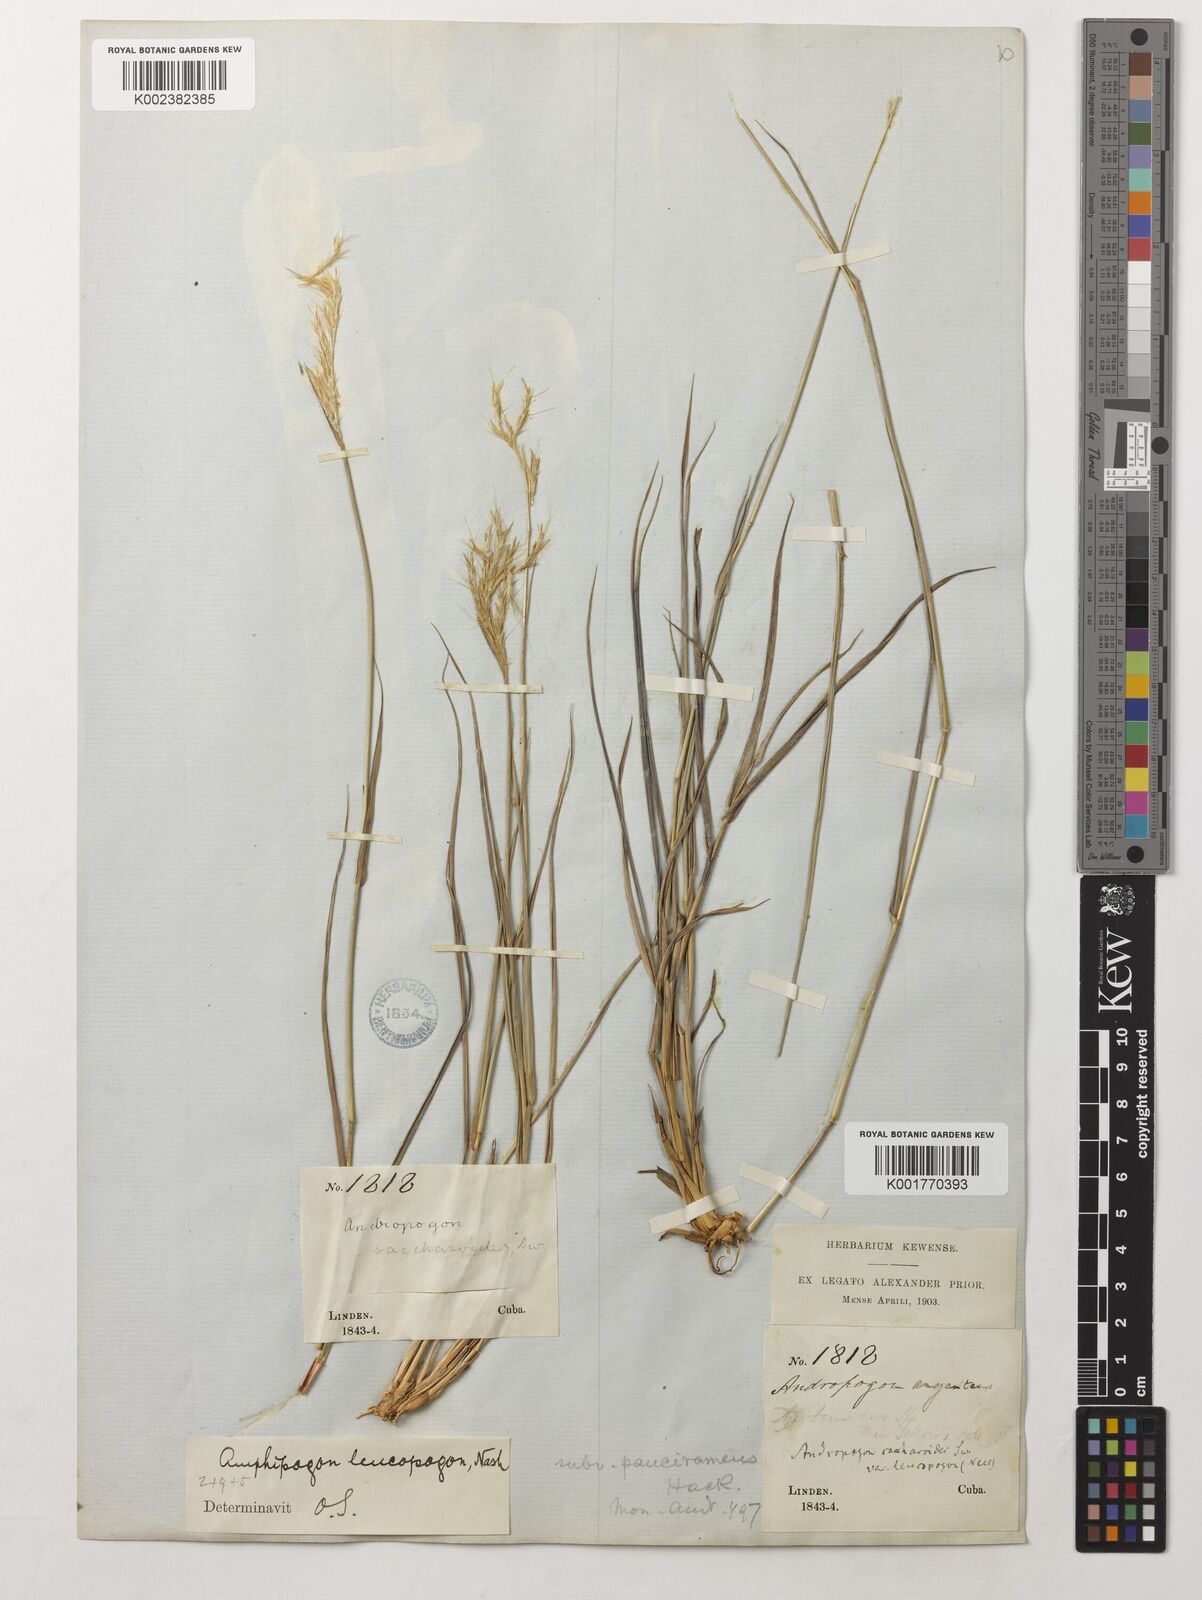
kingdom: Plantae
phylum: Tracheophyta
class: Liliopsida
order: Poales
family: Poaceae
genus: Amphipogon
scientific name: Amphipogon
